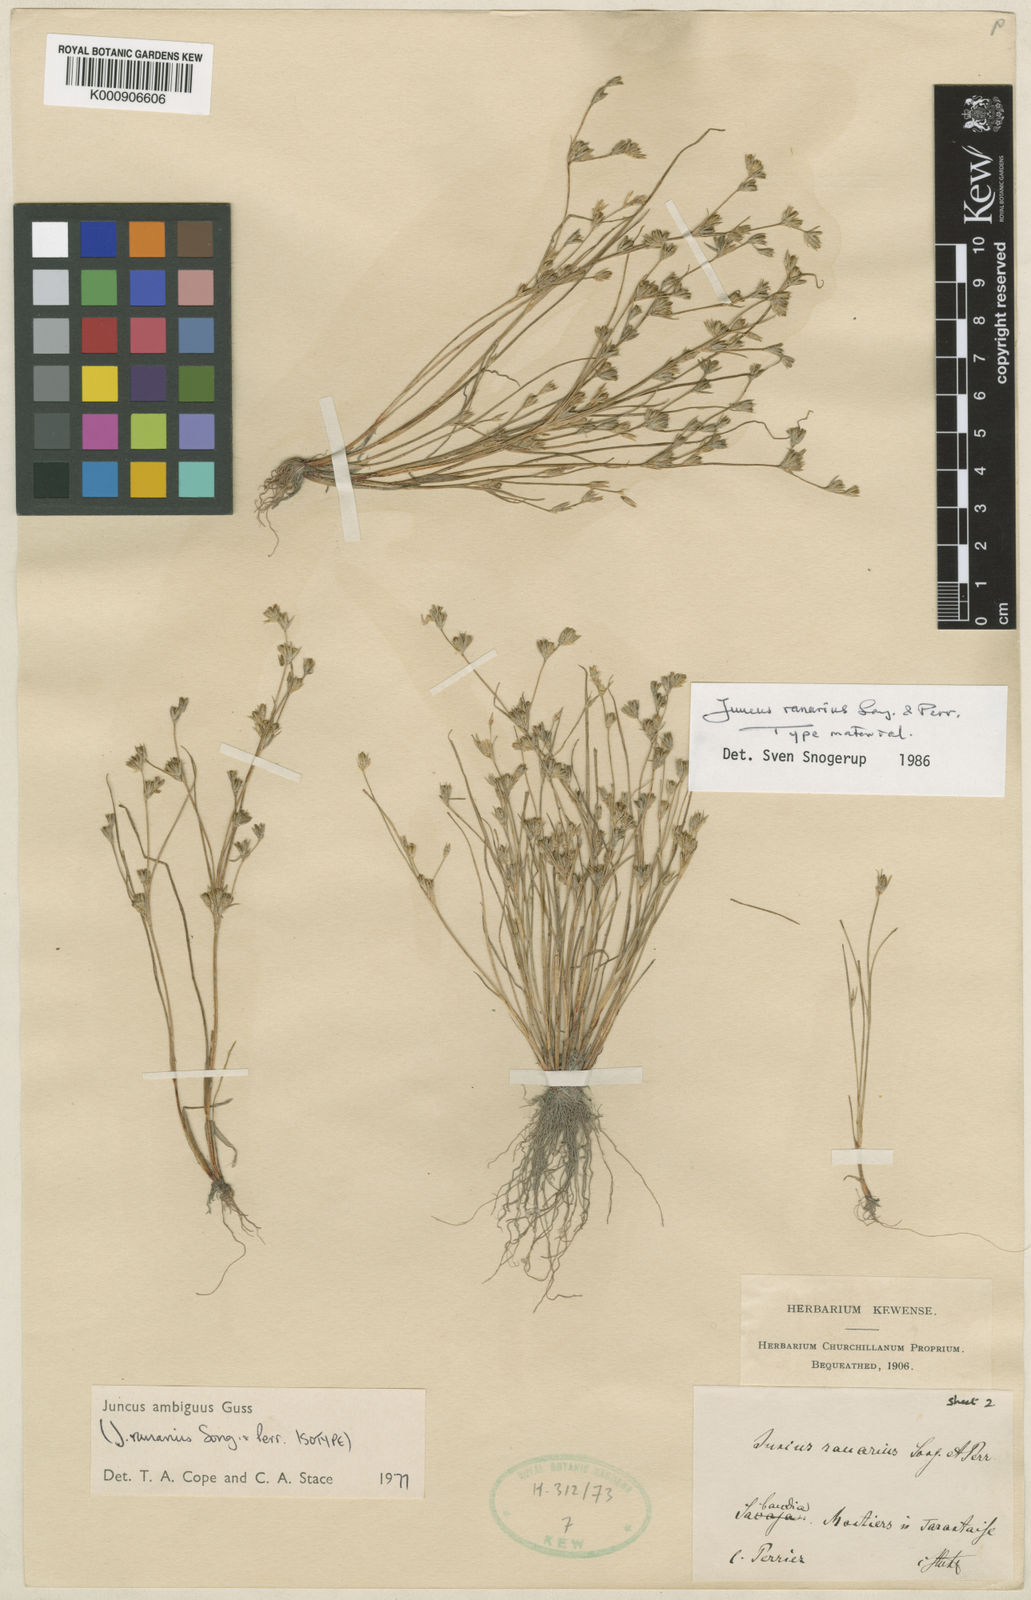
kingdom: Plantae
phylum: Tracheophyta
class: Liliopsida
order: Poales
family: Juncaceae
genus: Juncus
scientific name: Juncus hybridus
